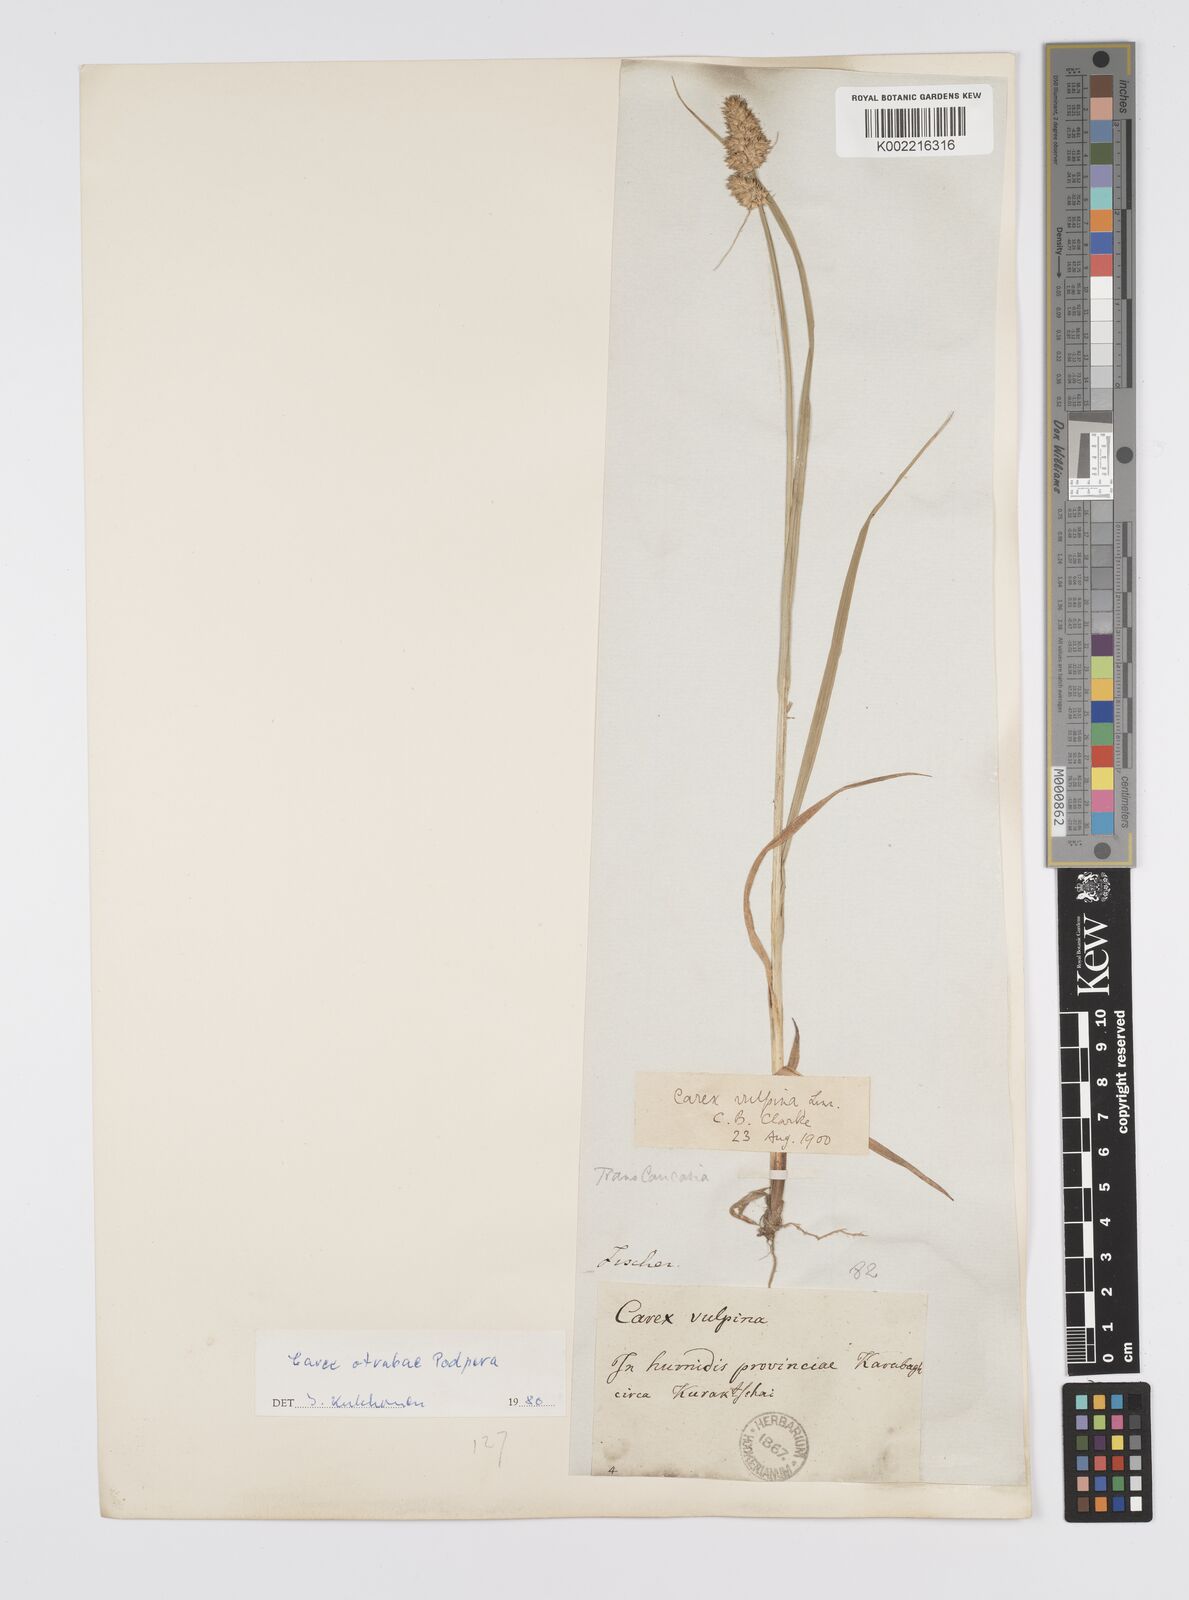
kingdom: Plantae
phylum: Tracheophyta
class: Liliopsida
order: Poales
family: Cyperaceae
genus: Carex
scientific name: Carex otrubae
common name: False fox-sedge
